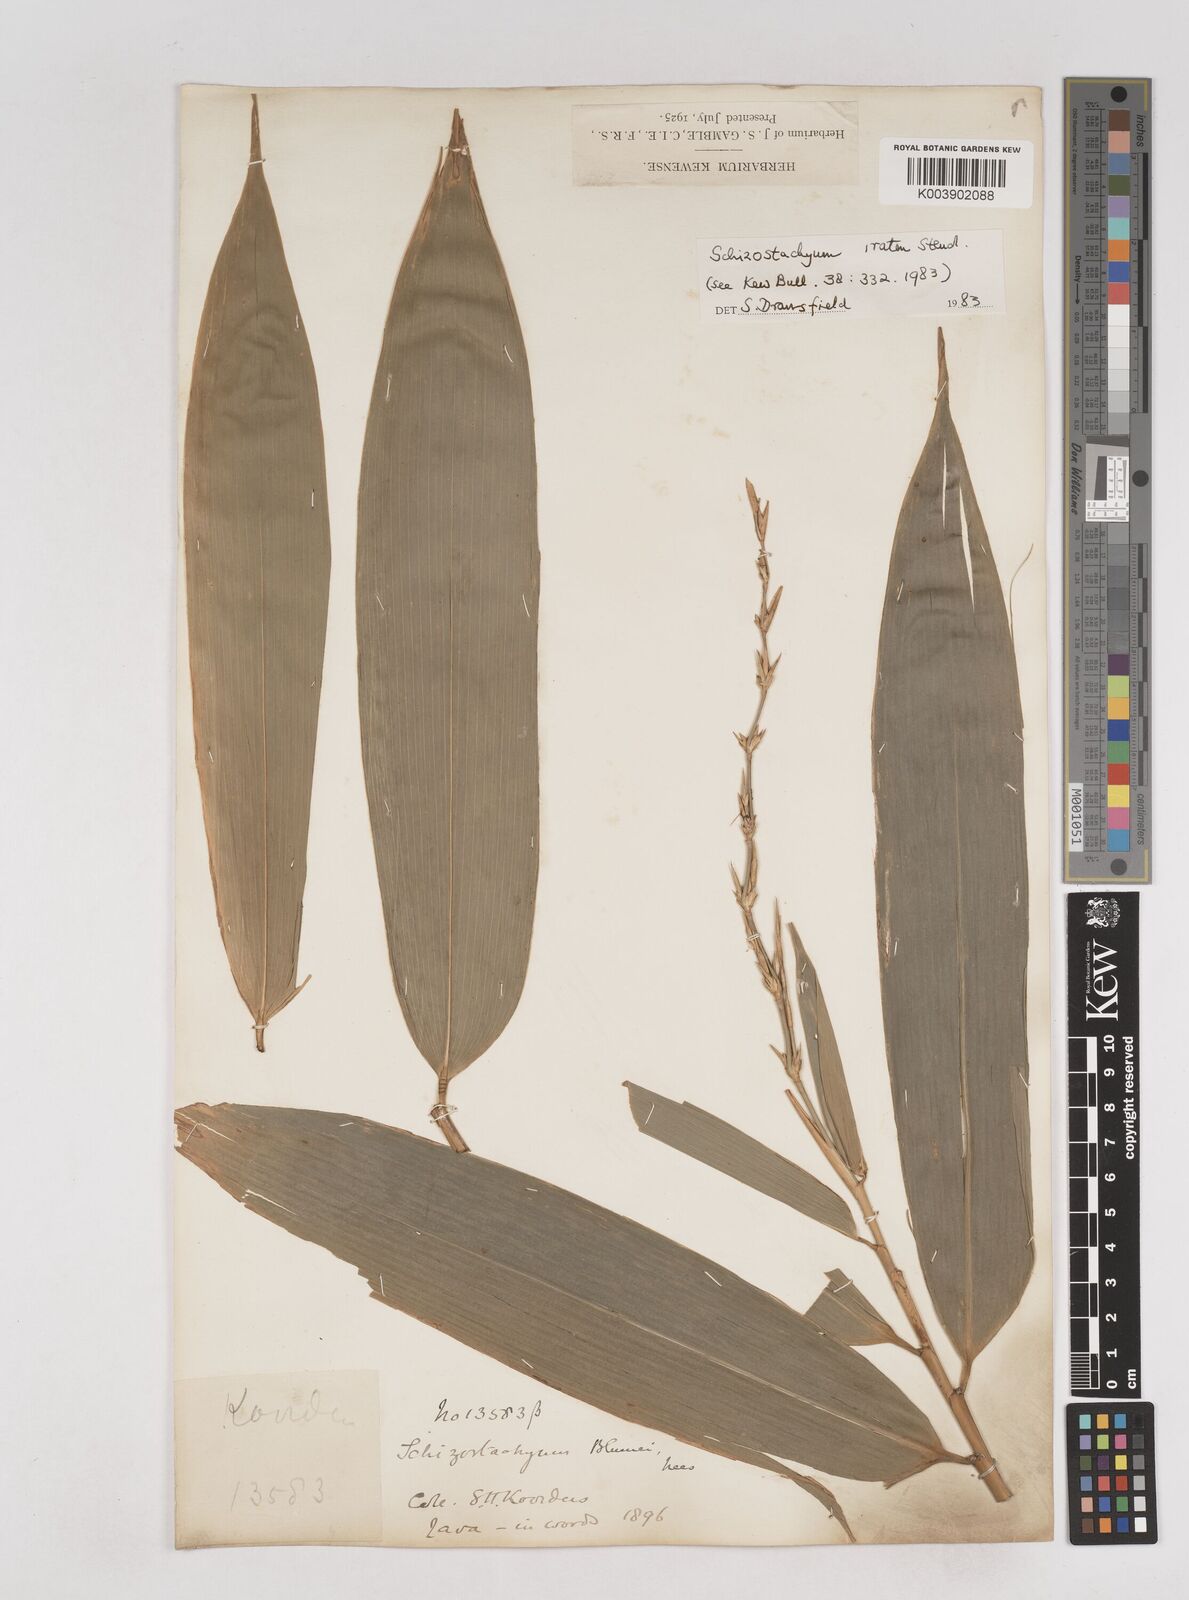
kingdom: Plantae
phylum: Tracheophyta
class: Liliopsida
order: Poales
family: Poaceae
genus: Schizostachyum
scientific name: Schizostachyum iraten
